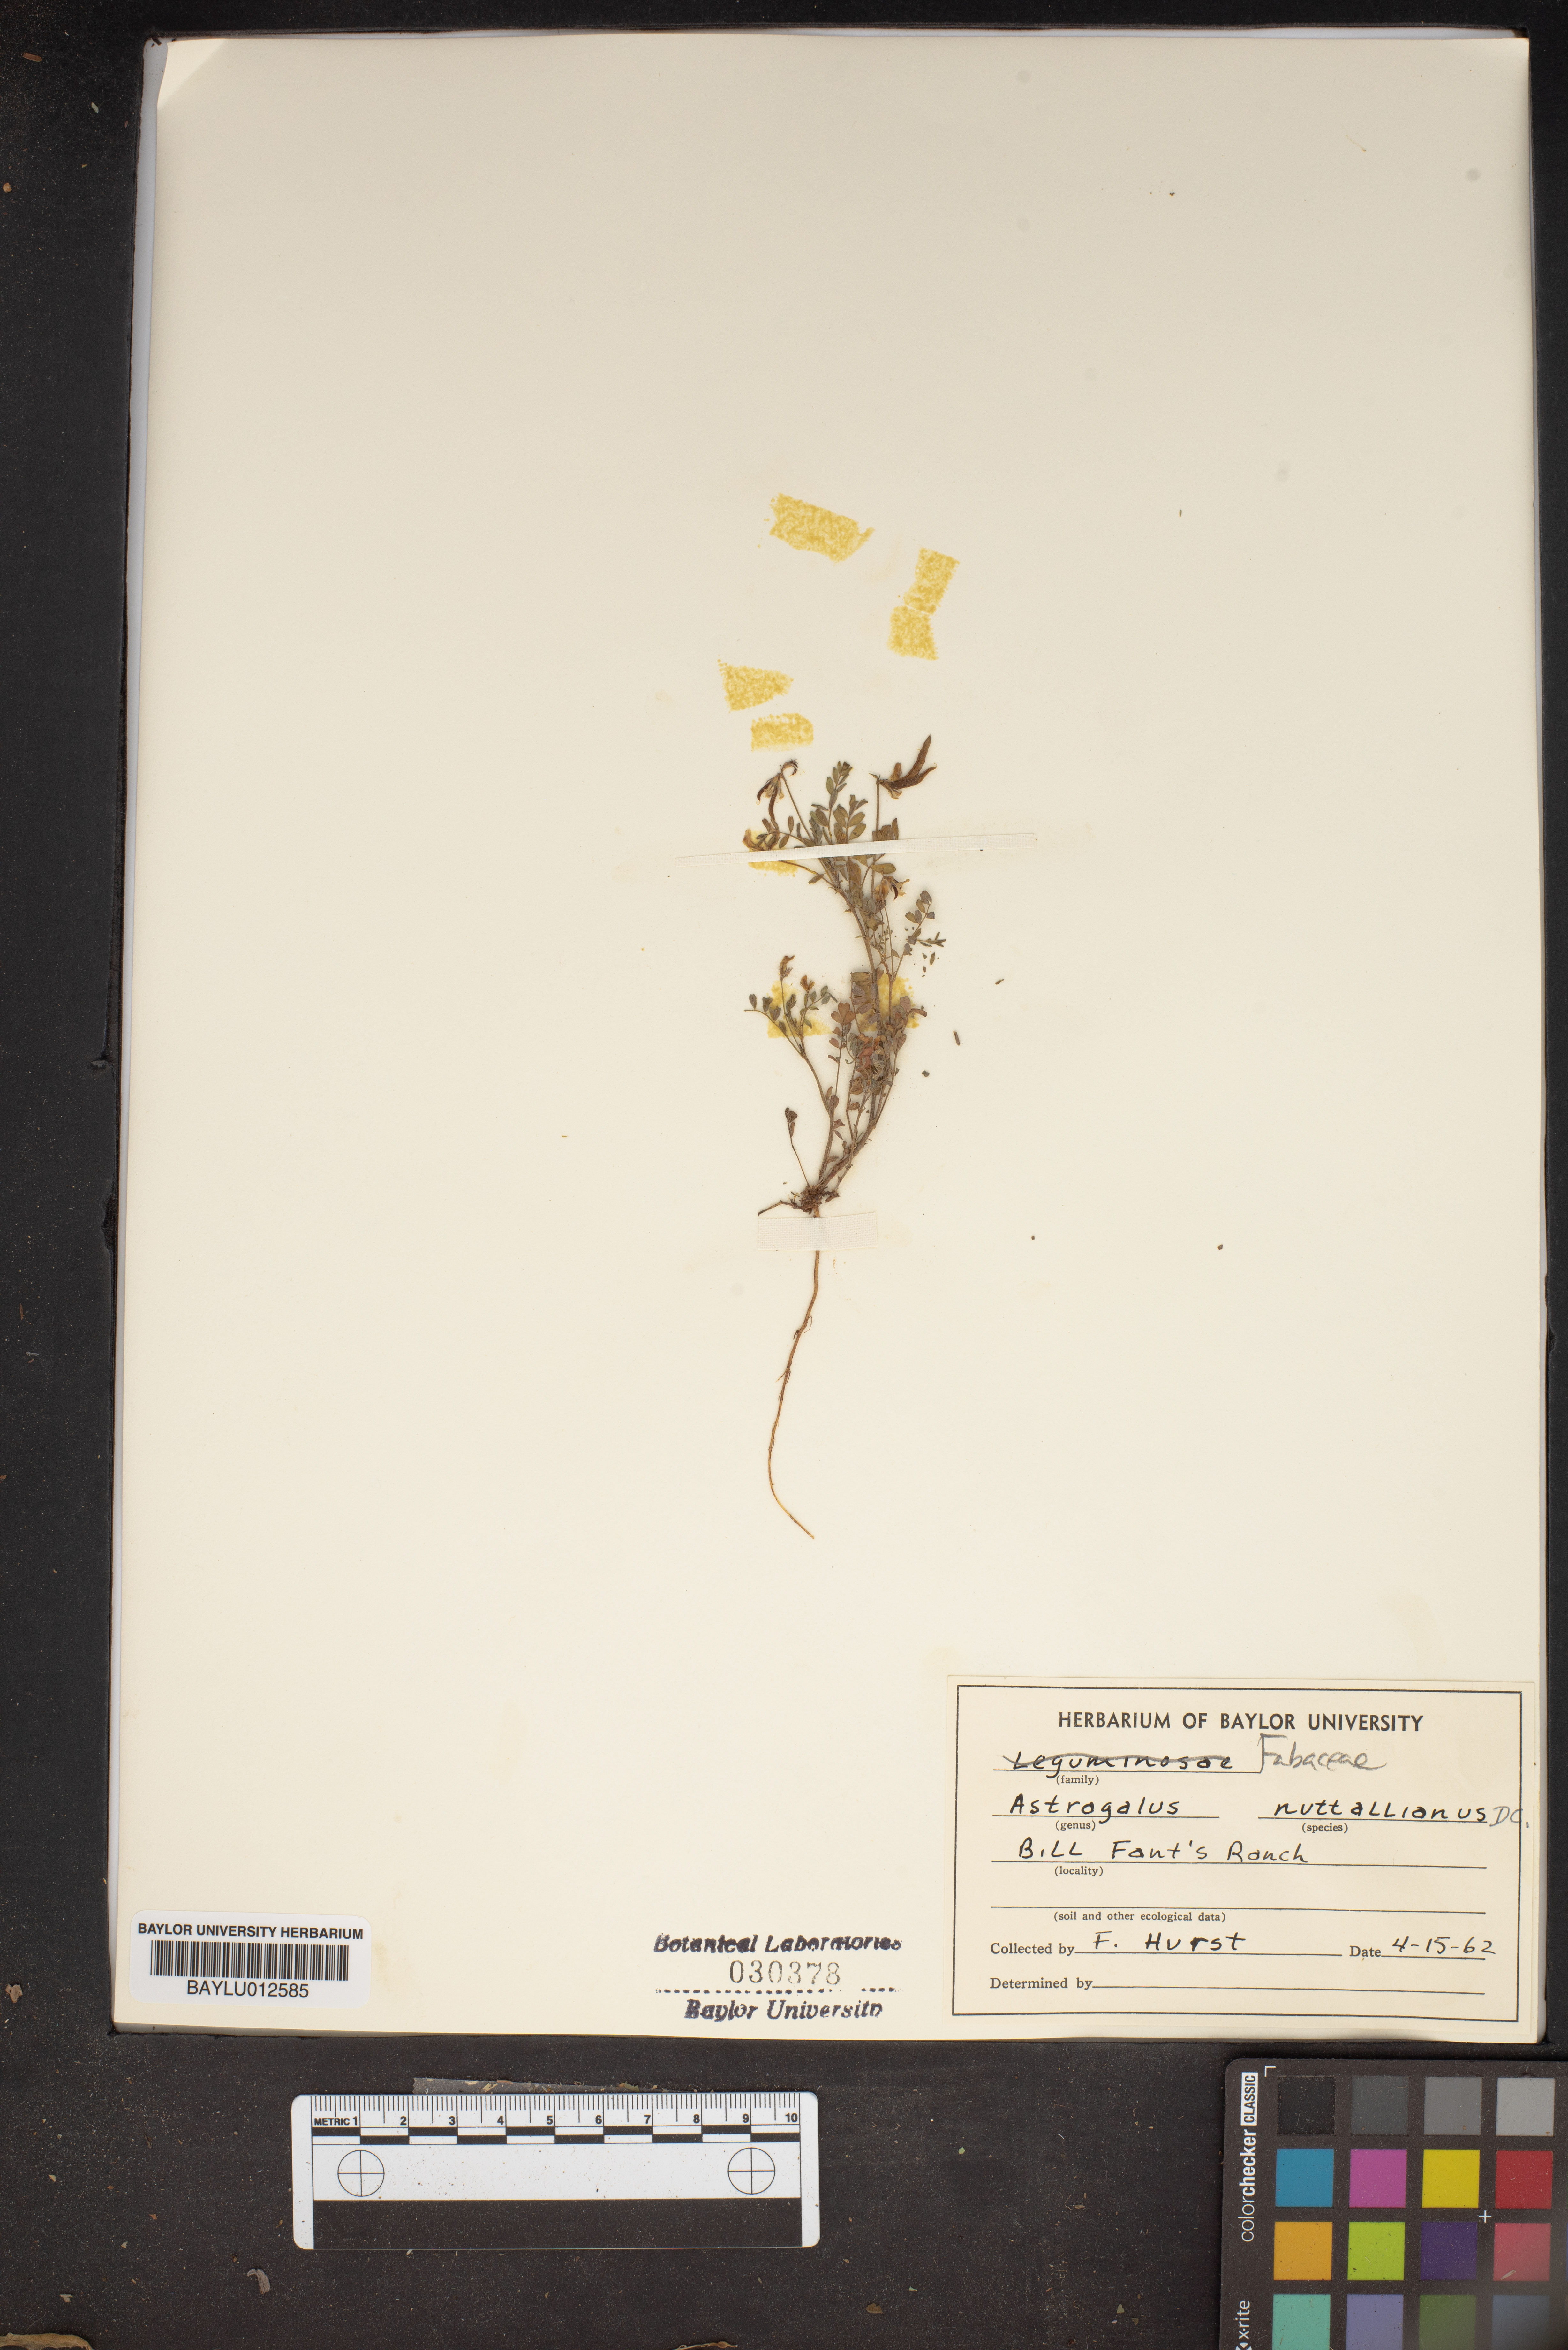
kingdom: Plantae
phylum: Tracheophyta
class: Magnoliopsida
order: Fabales
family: Fabaceae
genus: Astragalus
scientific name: Astragalus nuttallianus
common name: Smallflowered milkvetch
